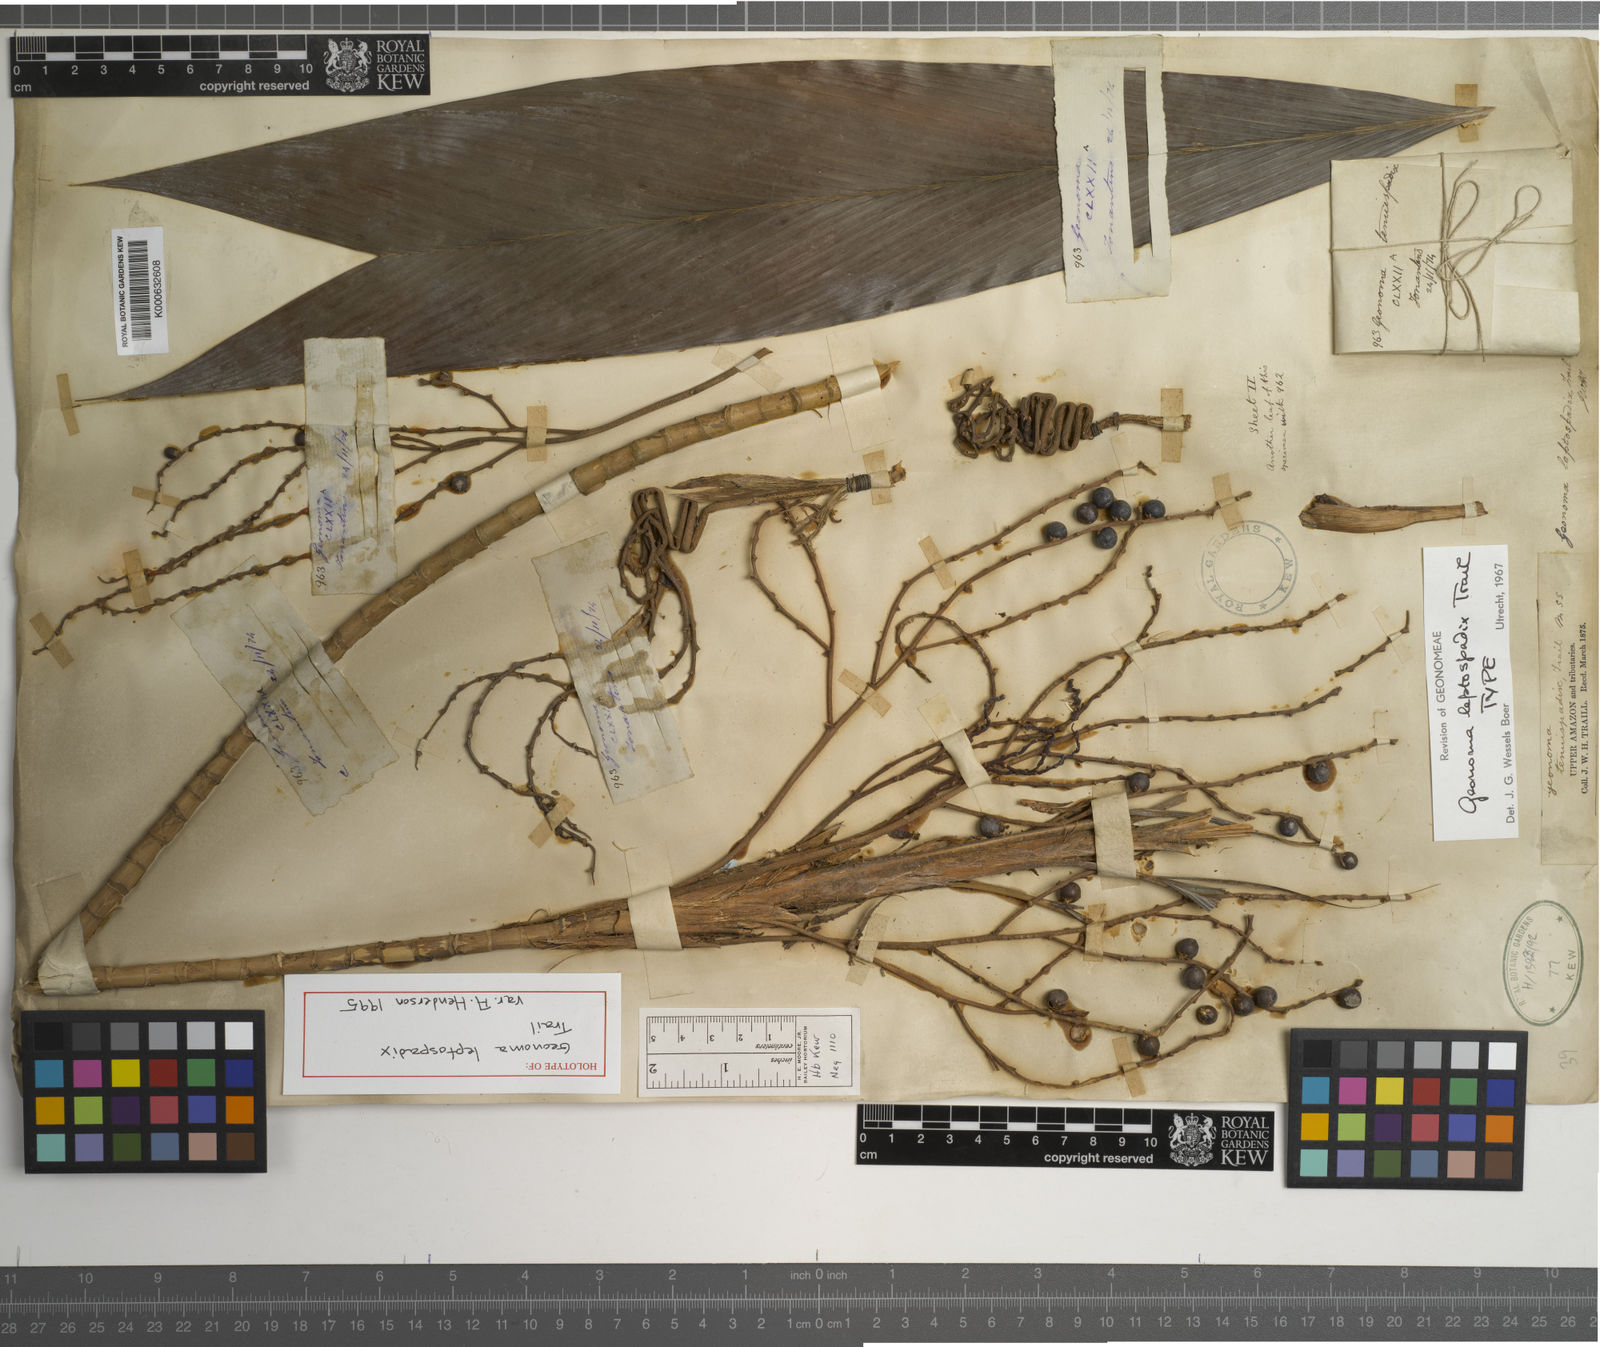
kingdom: Plantae
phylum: Tracheophyta
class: Liliopsida
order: Arecales
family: Arecaceae
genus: Geonoma
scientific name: Geonoma leptospadix
